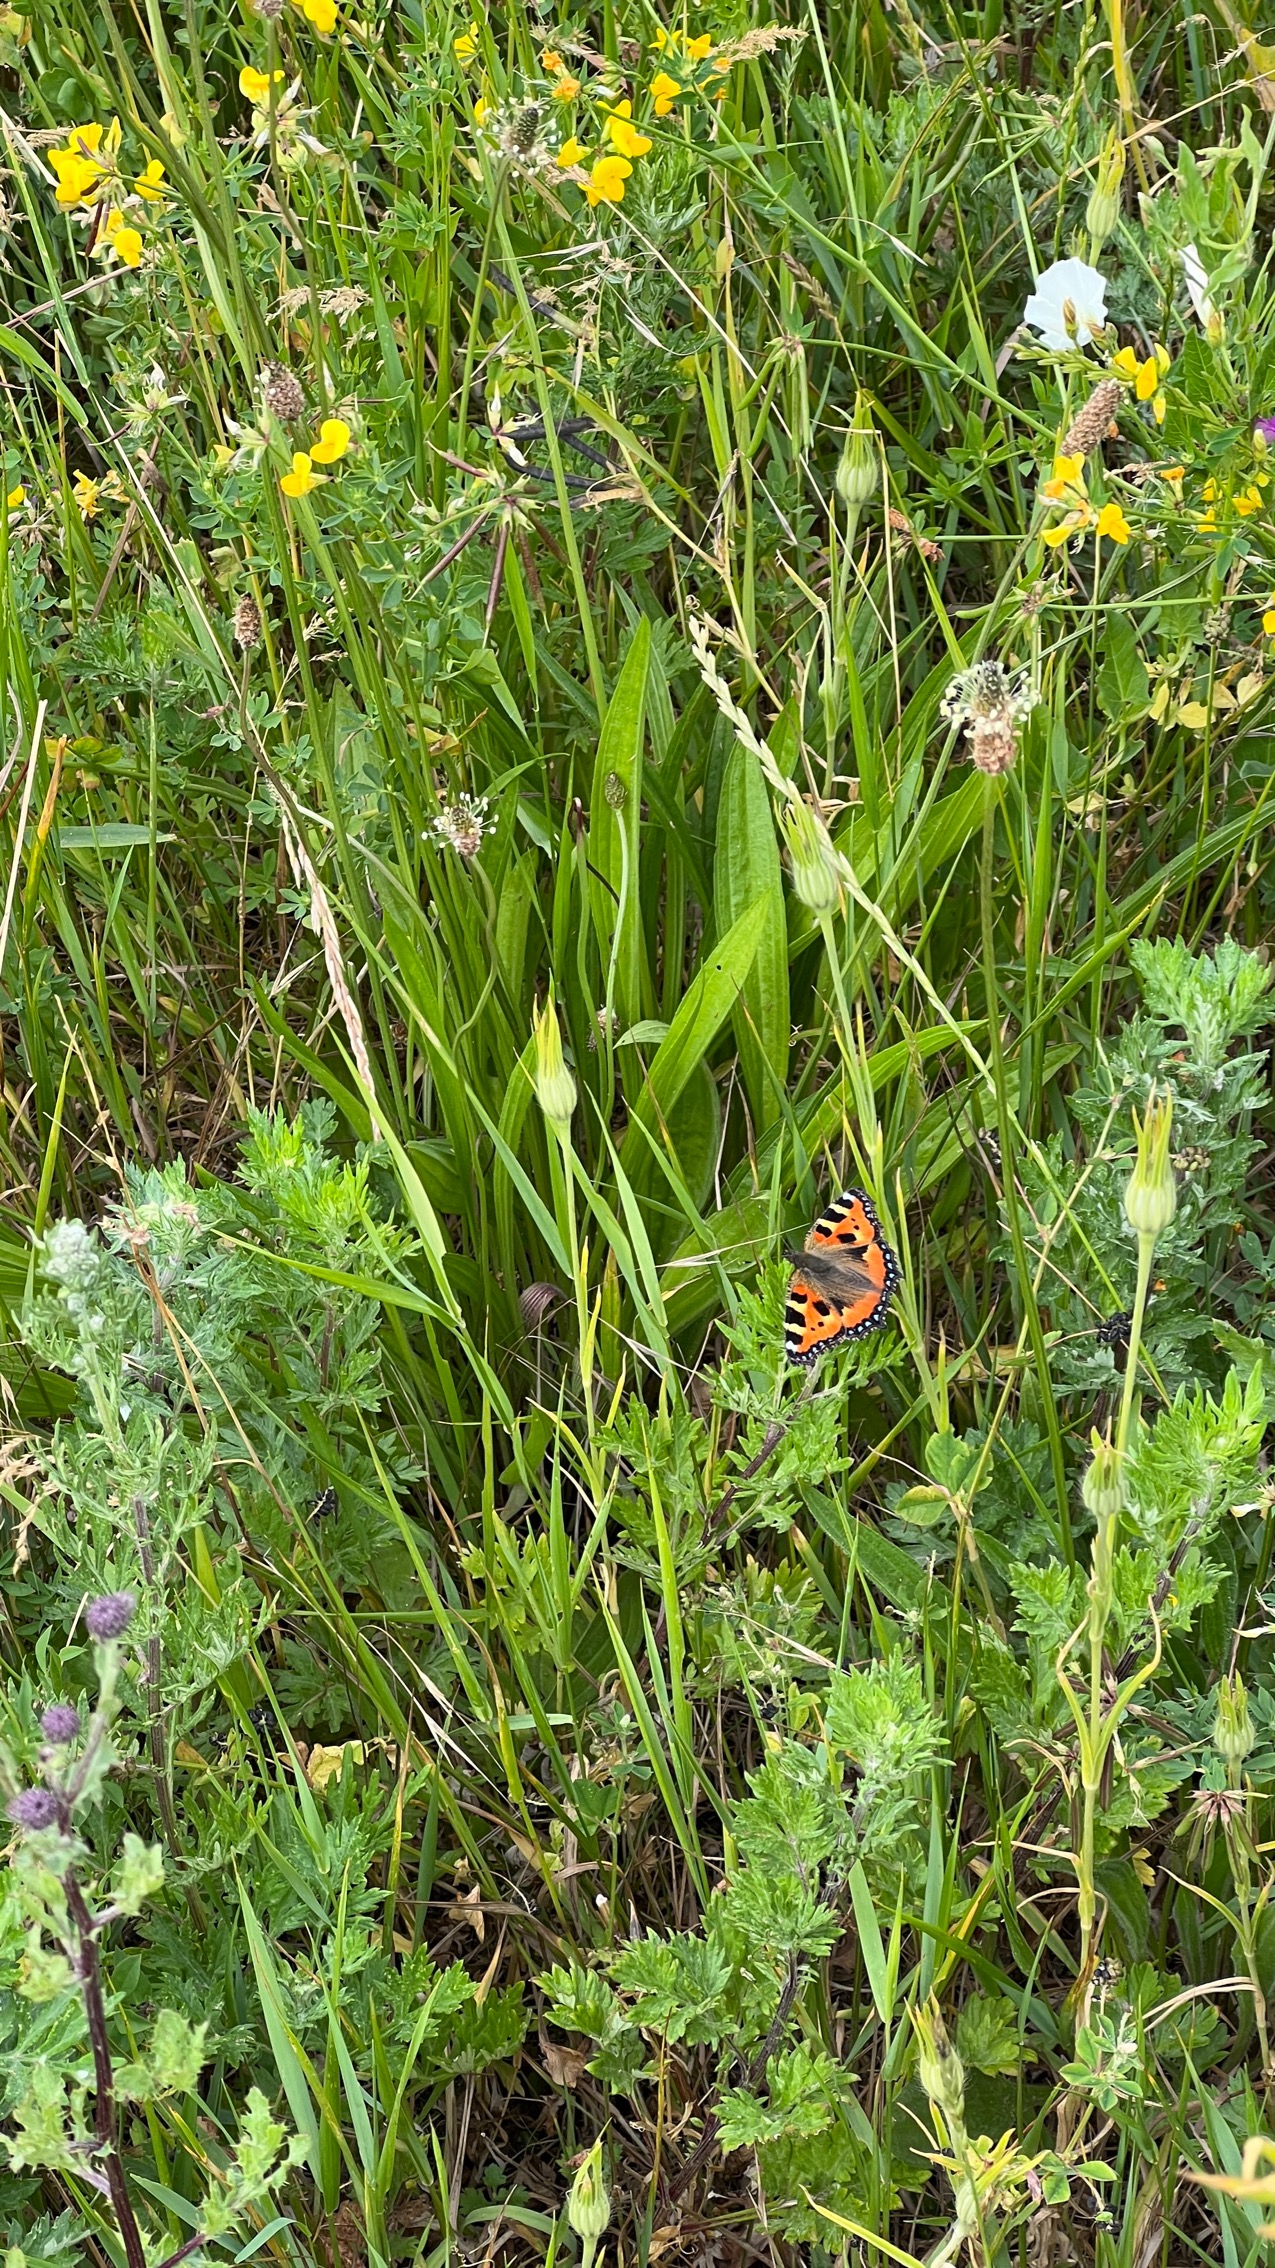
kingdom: Animalia
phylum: Arthropoda
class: Insecta
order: Lepidoptera
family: Nymphalidae
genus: Aglais
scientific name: Aglais urticae
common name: Nældens takvinge
